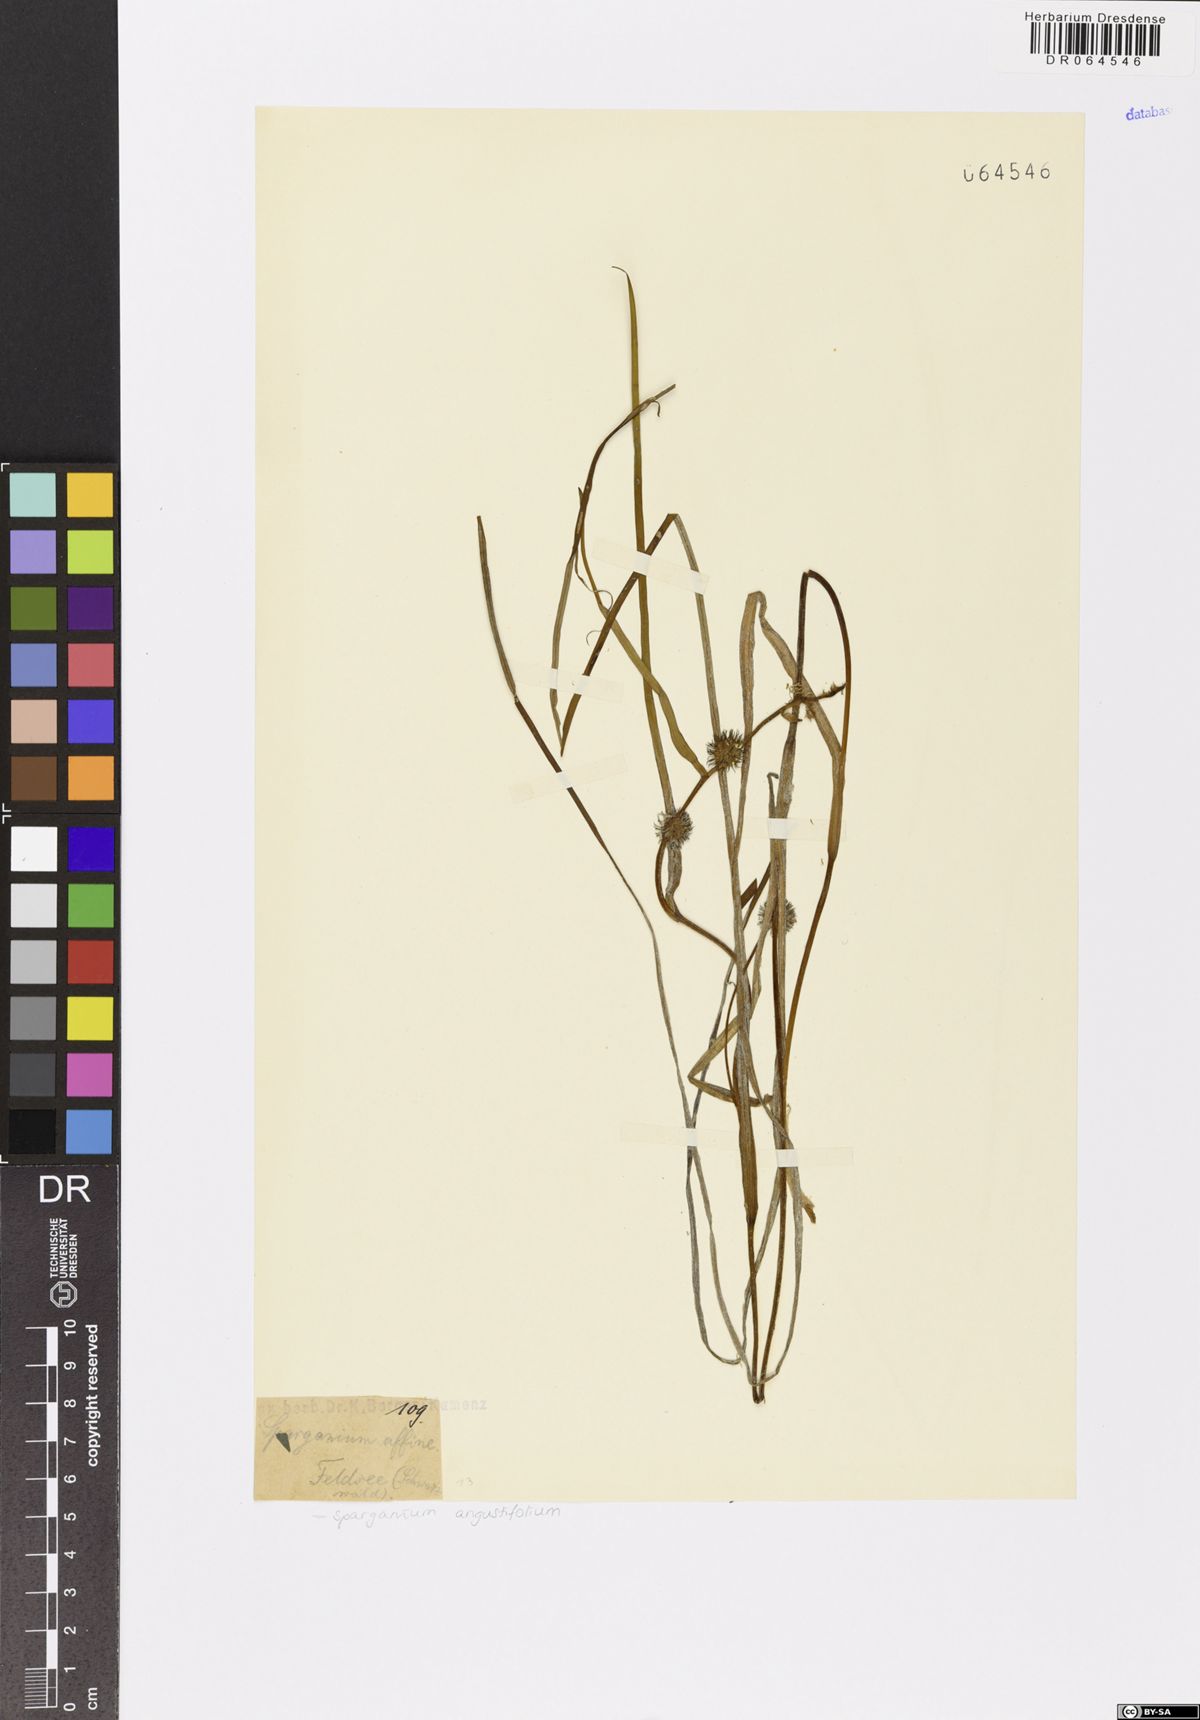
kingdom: Plantae
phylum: Tracheophyta
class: Liliopsida
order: Poales
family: Typhaceae
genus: Sparganium
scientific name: Sparganium angustifolium
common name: Floating bur-reed
